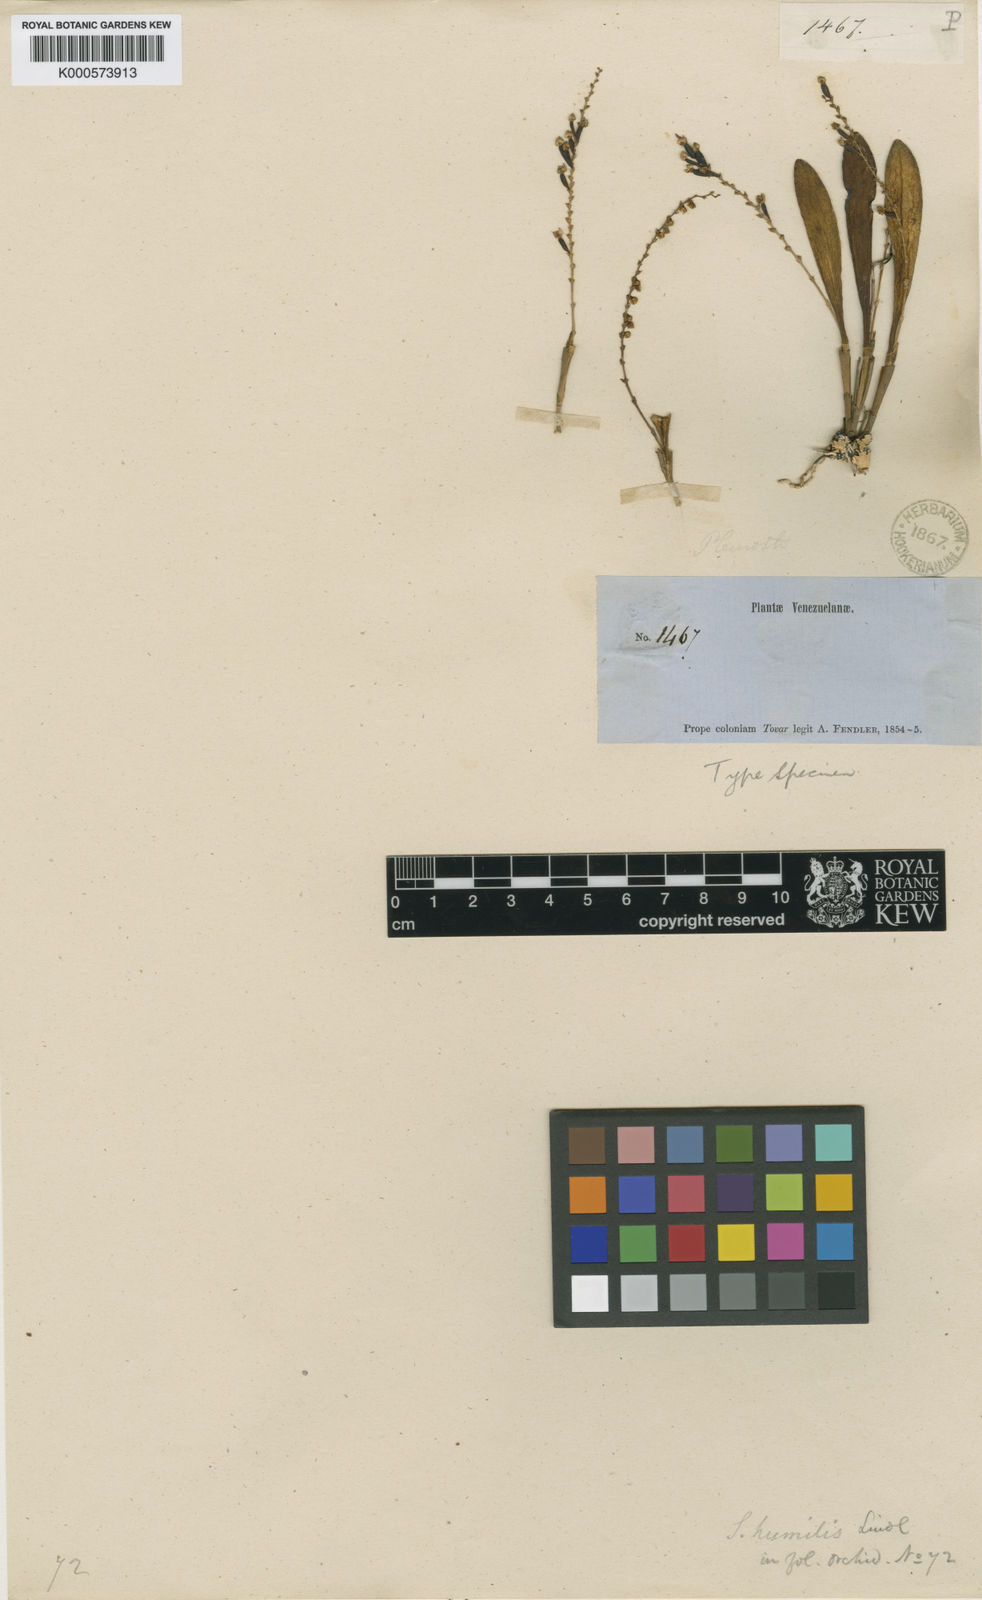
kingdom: Plantae
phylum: Tracheophyta
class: Liliopsida
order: Asparagales
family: Orchidaceae
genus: Stelis
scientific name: Stelis humilis
